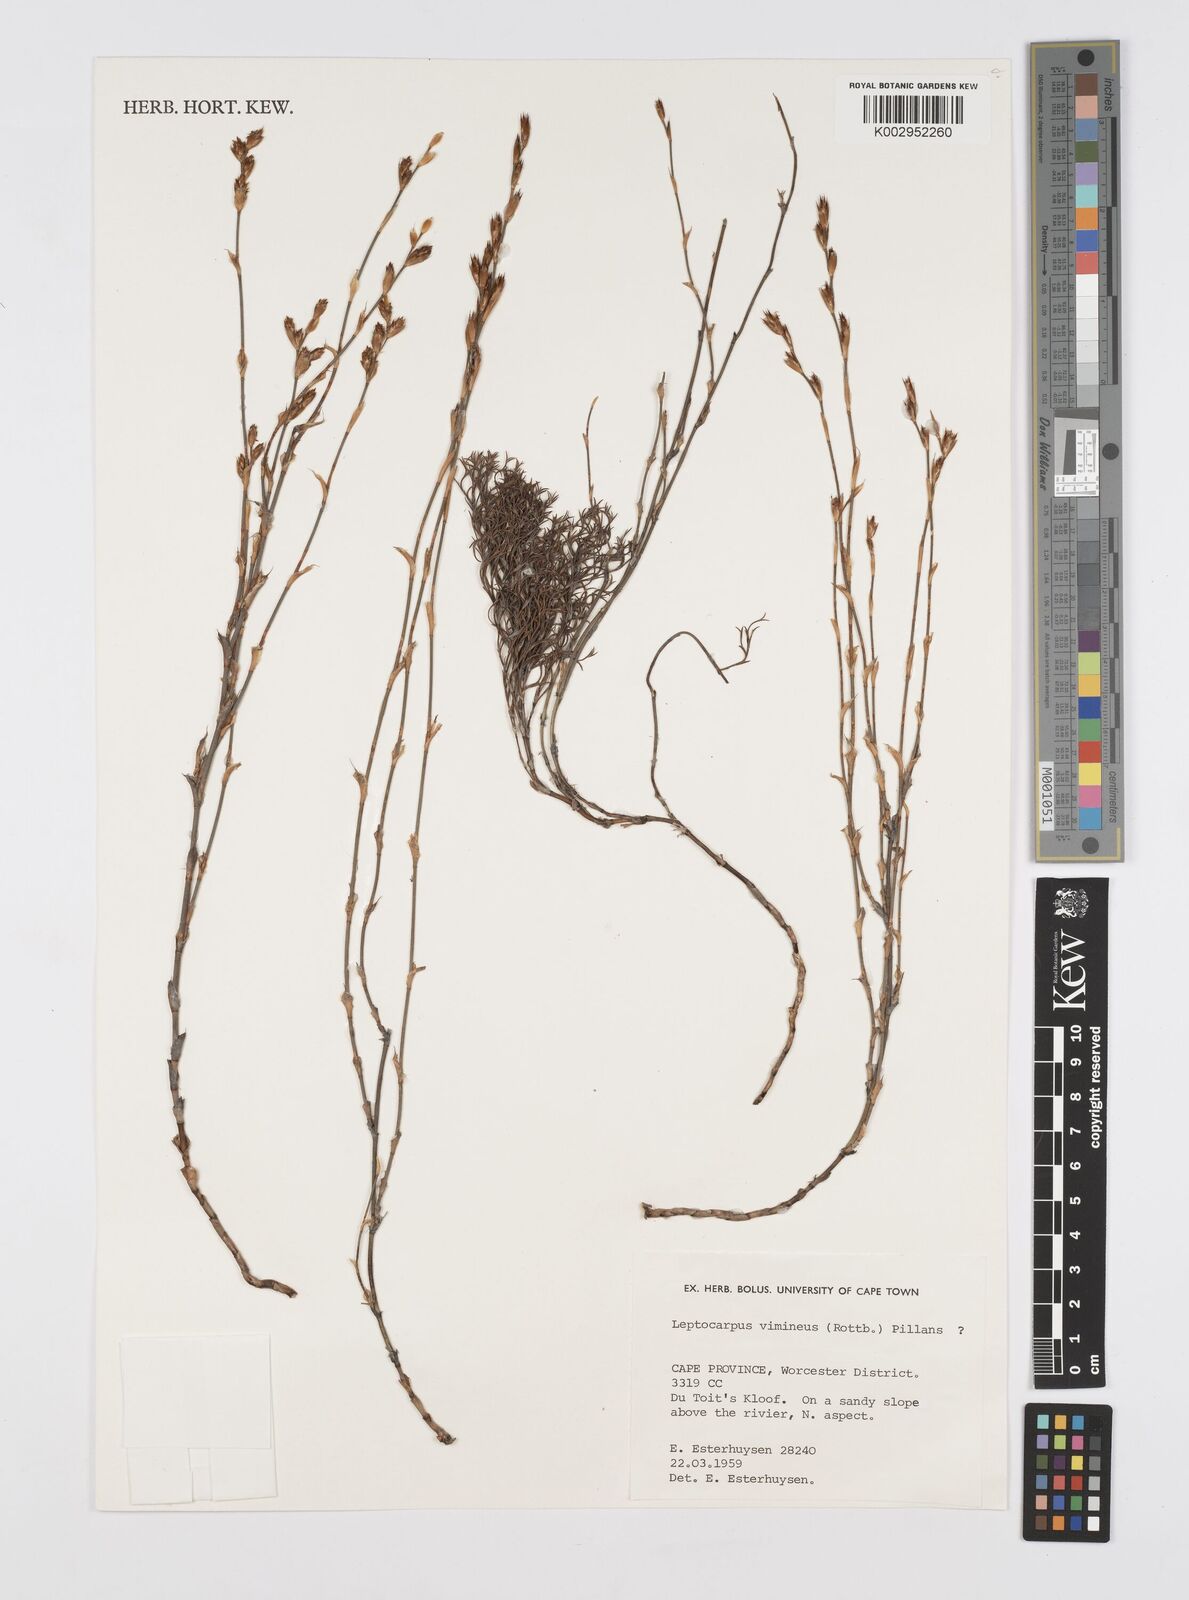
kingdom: Plantae
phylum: Tracheophyta
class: Liliopsida
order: Poales
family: Restionaceae
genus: Restio
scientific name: Restio vimineus
